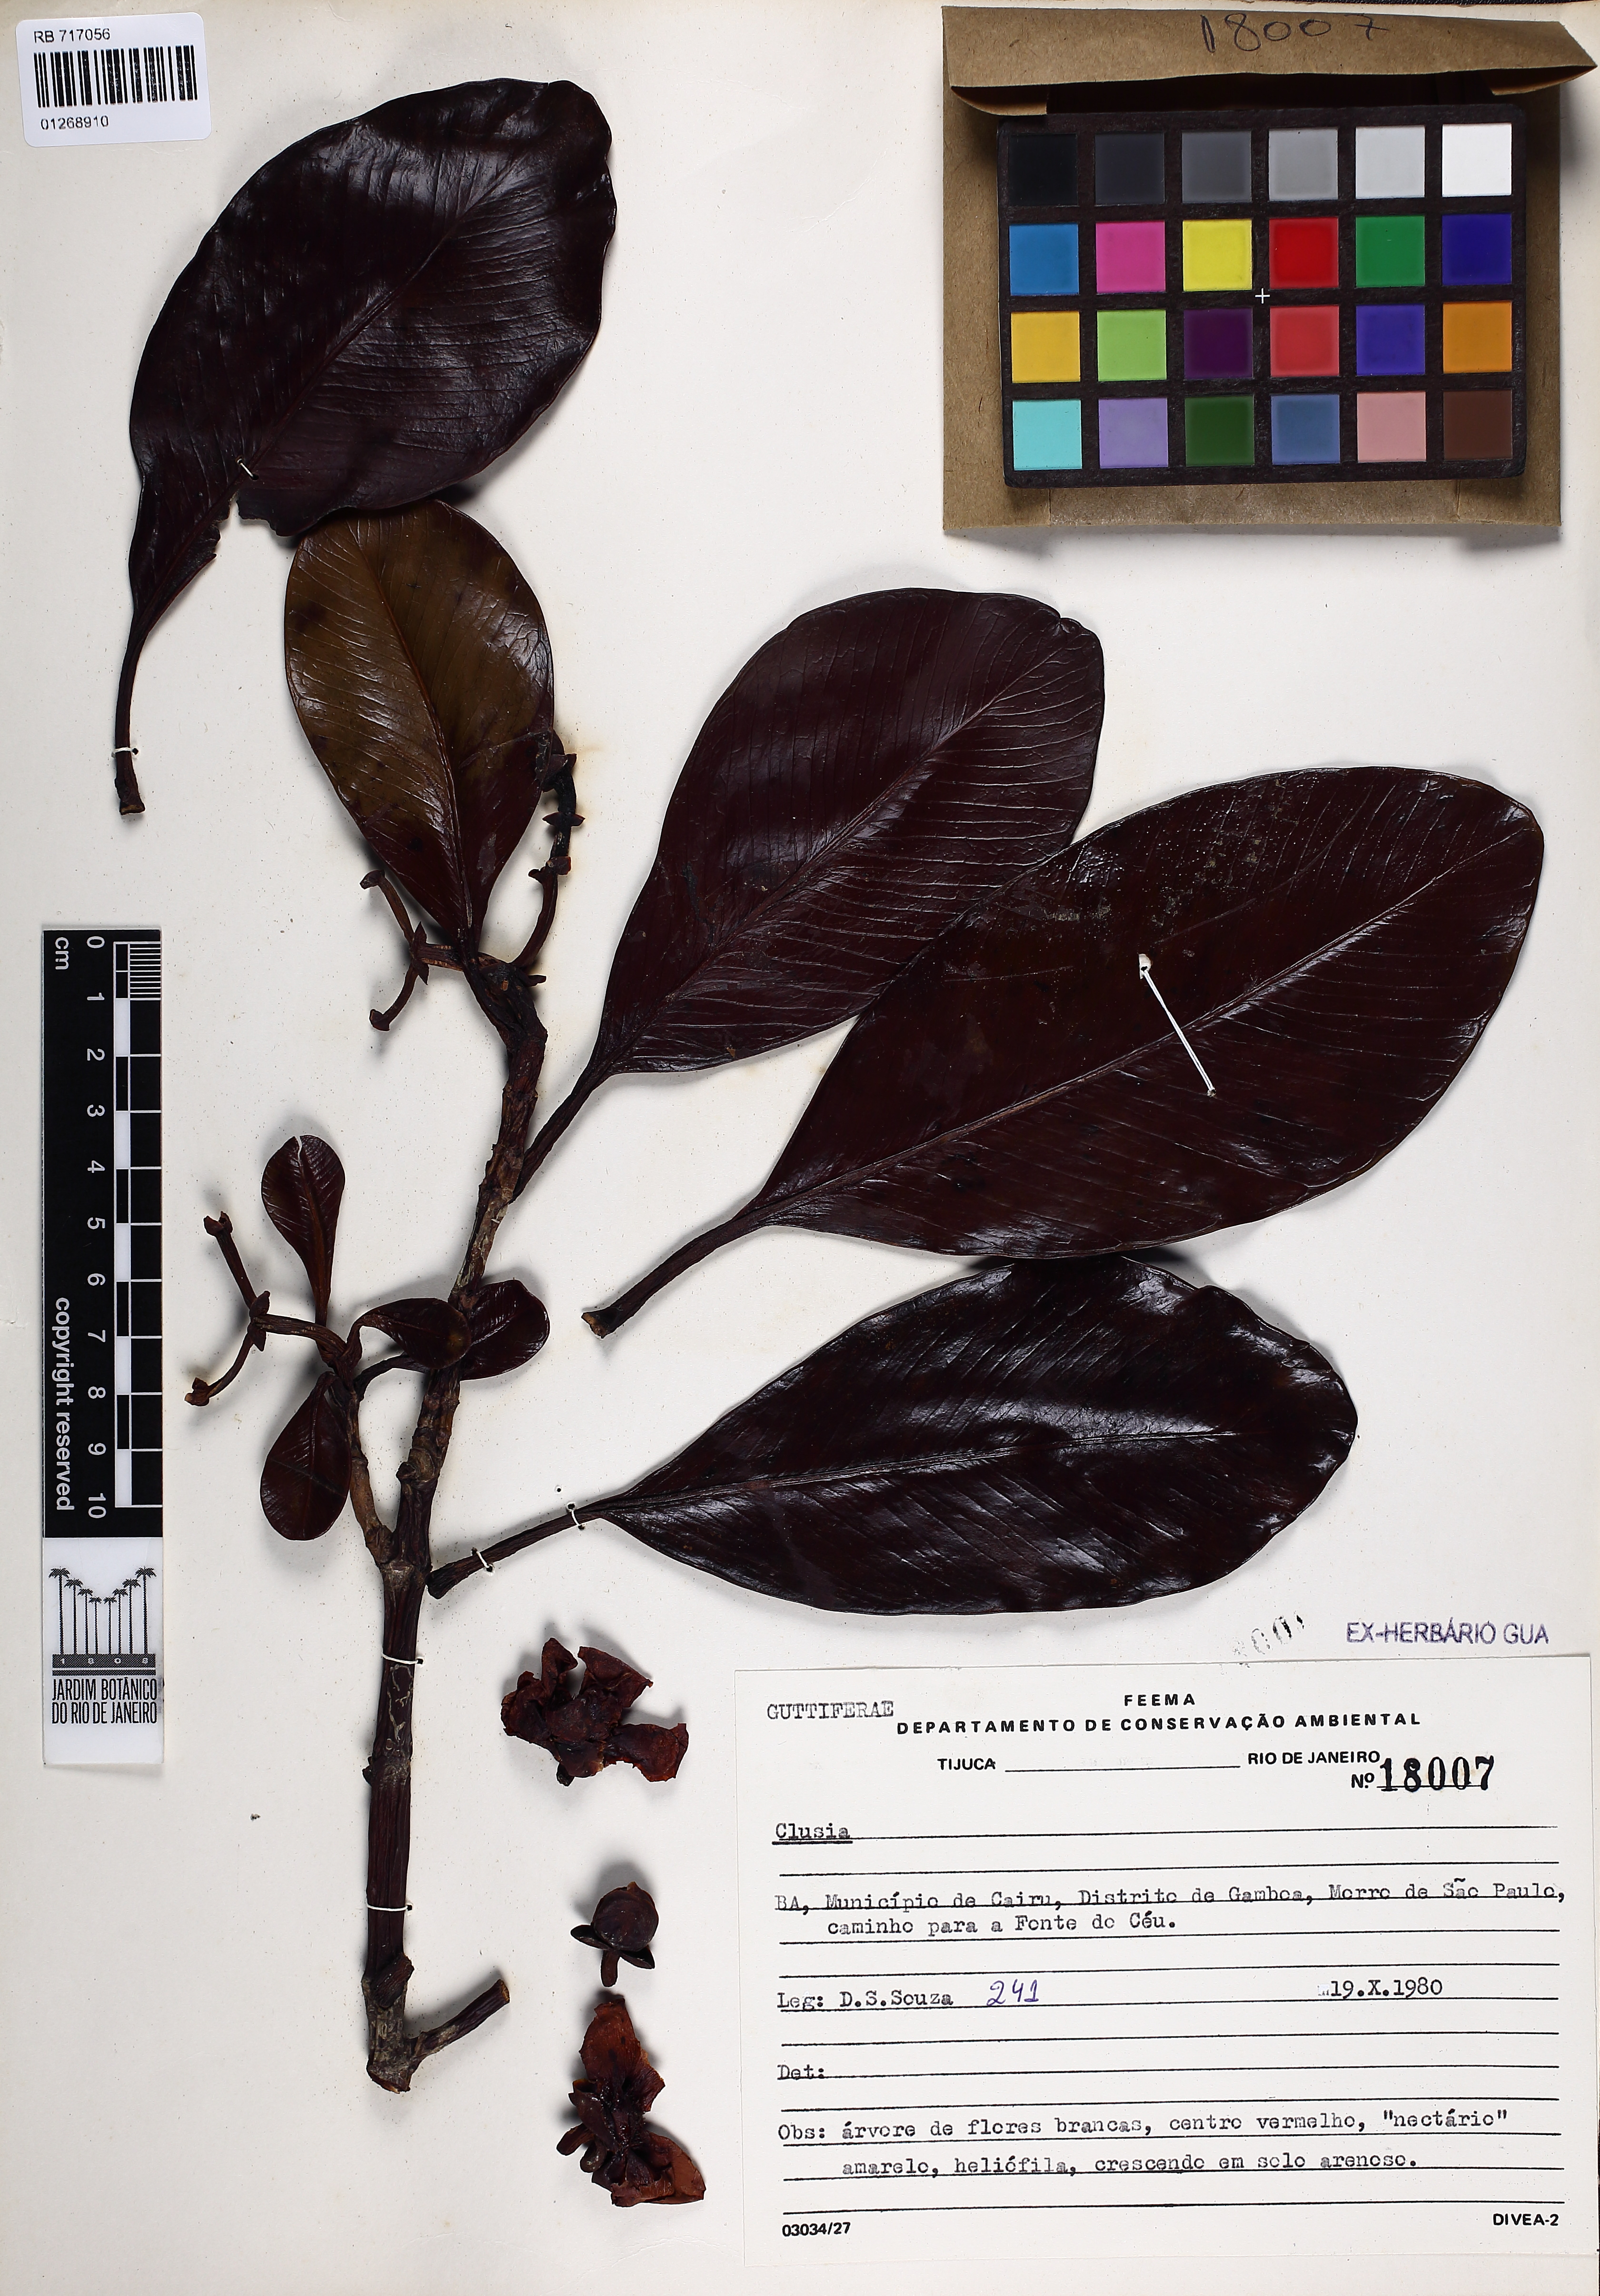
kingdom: Plantae
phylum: Tracheophyta
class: Magnoliopsida
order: Malpighiales
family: Clusiaceae
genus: Clusia
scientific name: Clusia
